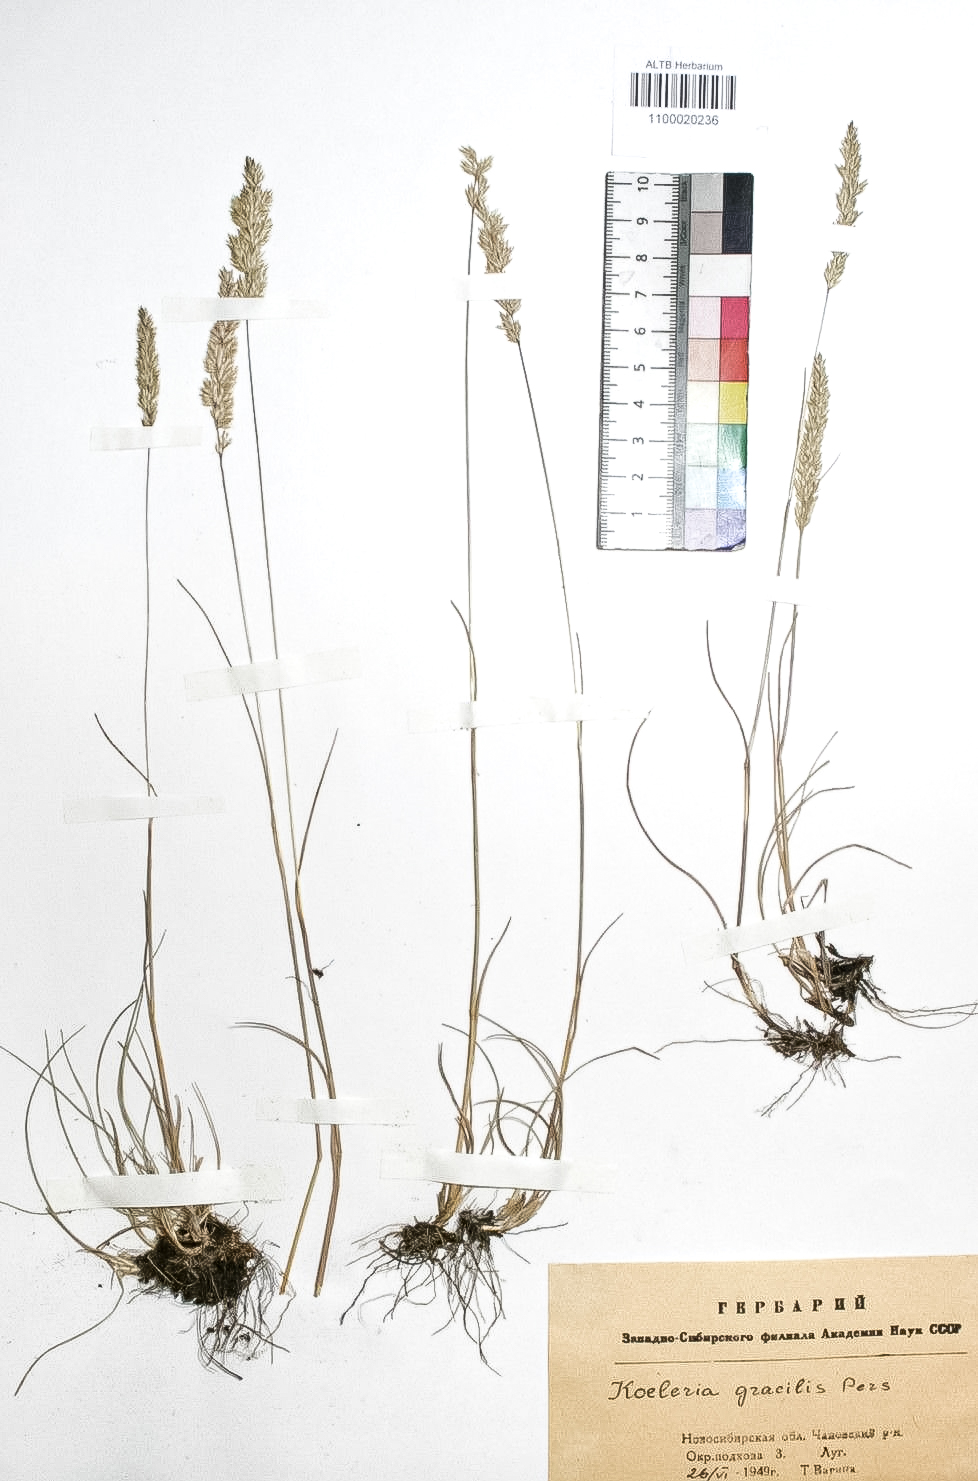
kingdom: Plantae
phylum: Tracheophyta
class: Liliopsida
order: Poales
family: Poaceae
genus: Koeleria
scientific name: Koeleria macrantha
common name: Crested hair-grass
